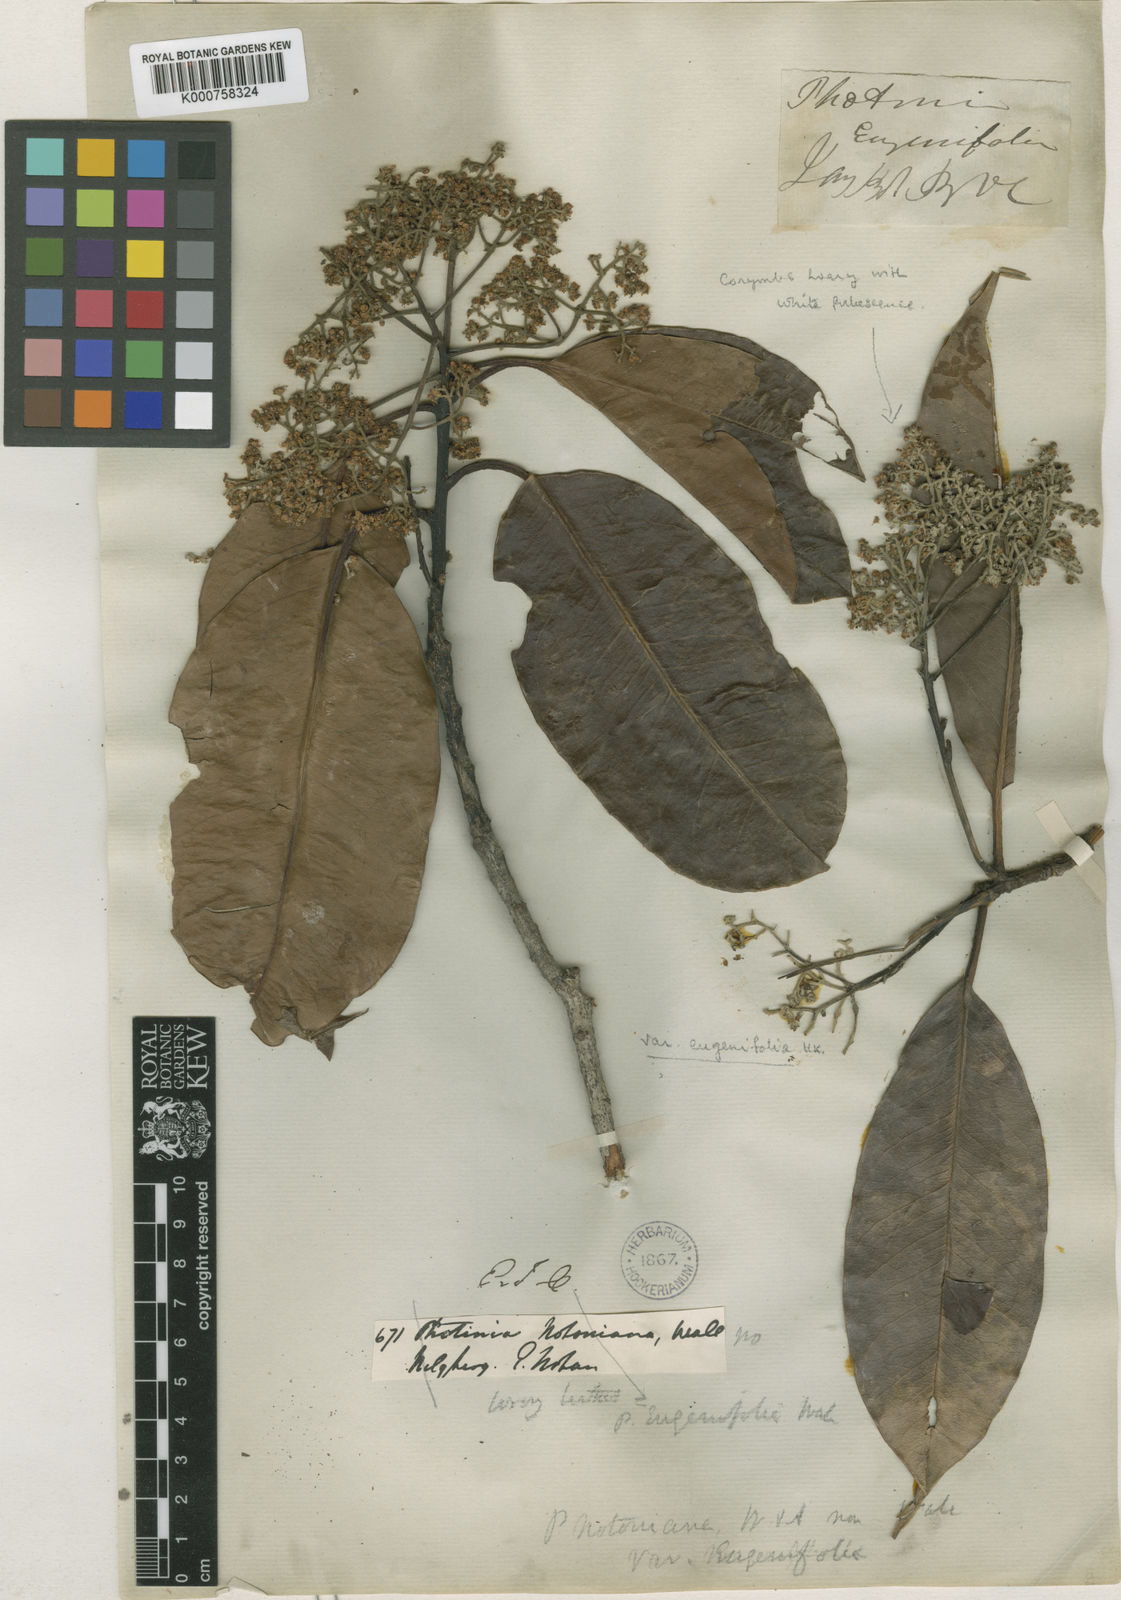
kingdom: Plantae
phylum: Tracheophyta
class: Magnoliopsida
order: Rosales
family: Rosaceae
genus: Photinia
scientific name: Photinia integrifolia
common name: Himalayan chokeberry
